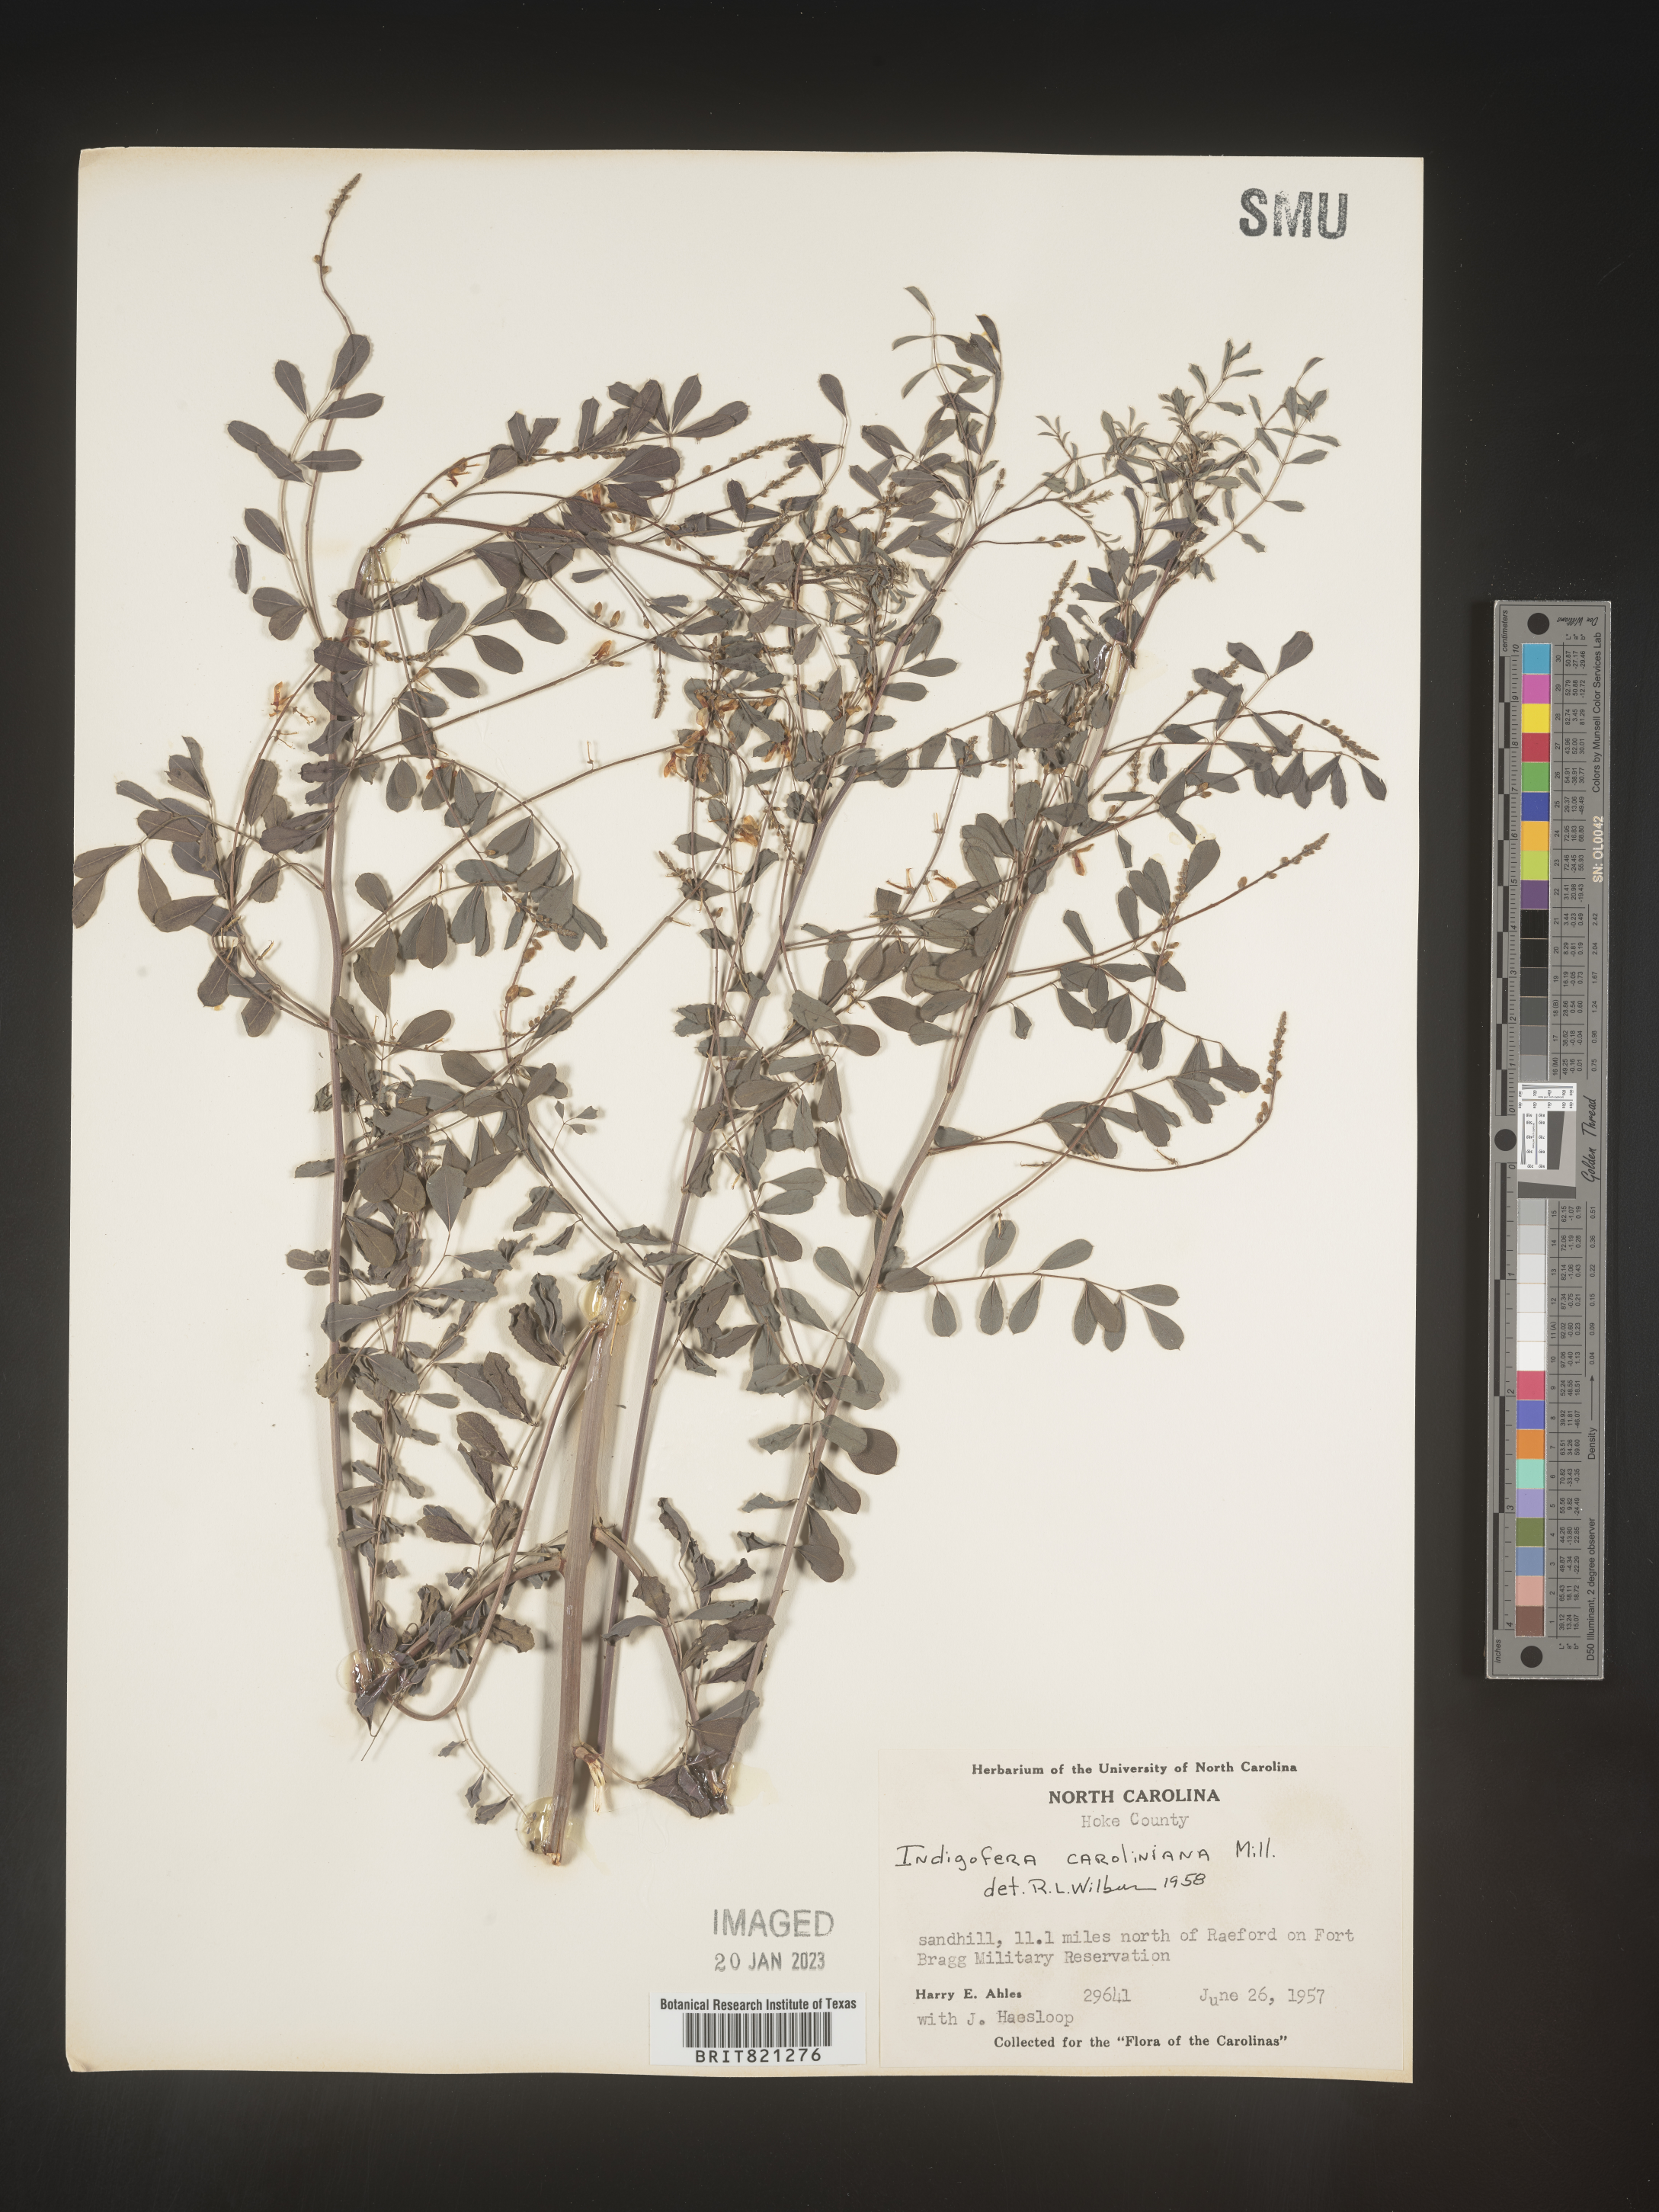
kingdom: Plantae
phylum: Tracheophyta
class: Magnoliopsida
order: Fabales
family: Fabaceae
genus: Indigofera
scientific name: Indigofera
